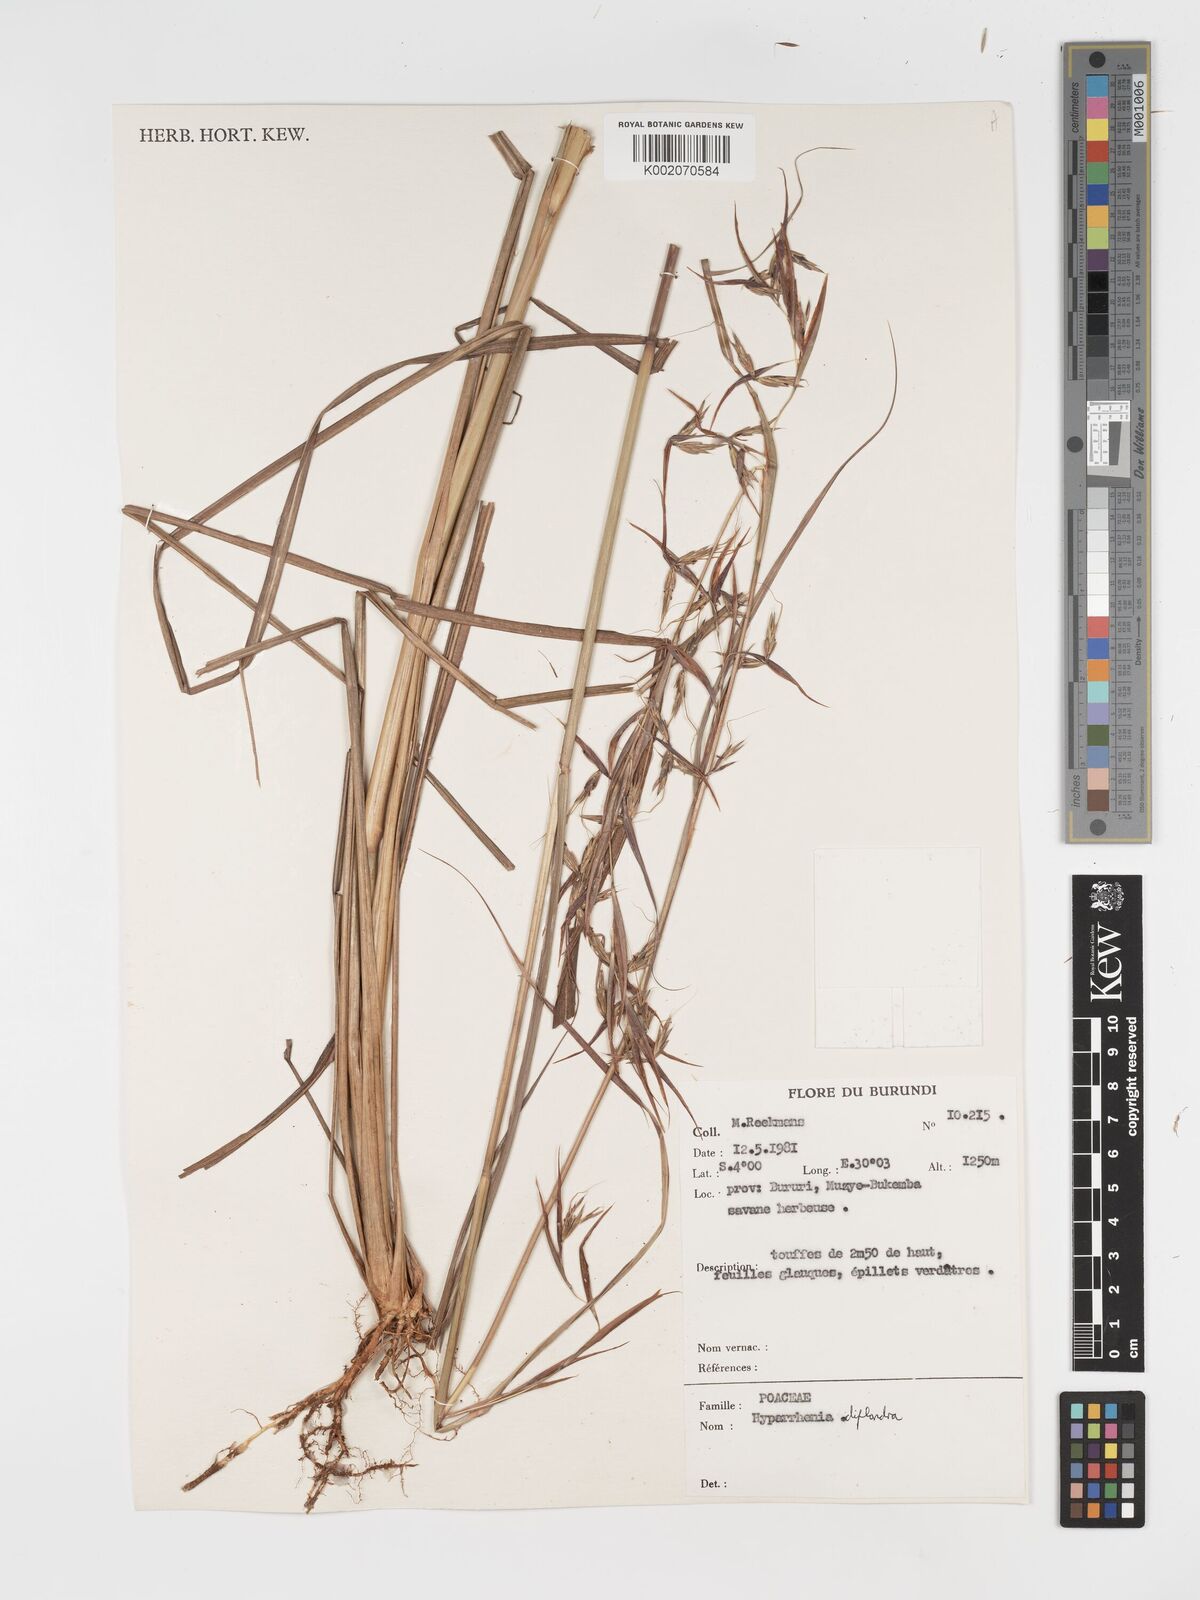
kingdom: Plantae
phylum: Tracheophyta
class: Liliopsida
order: Poales
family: Poaceae
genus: Hyparrhenia
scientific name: Hyparrhenia diplandra
